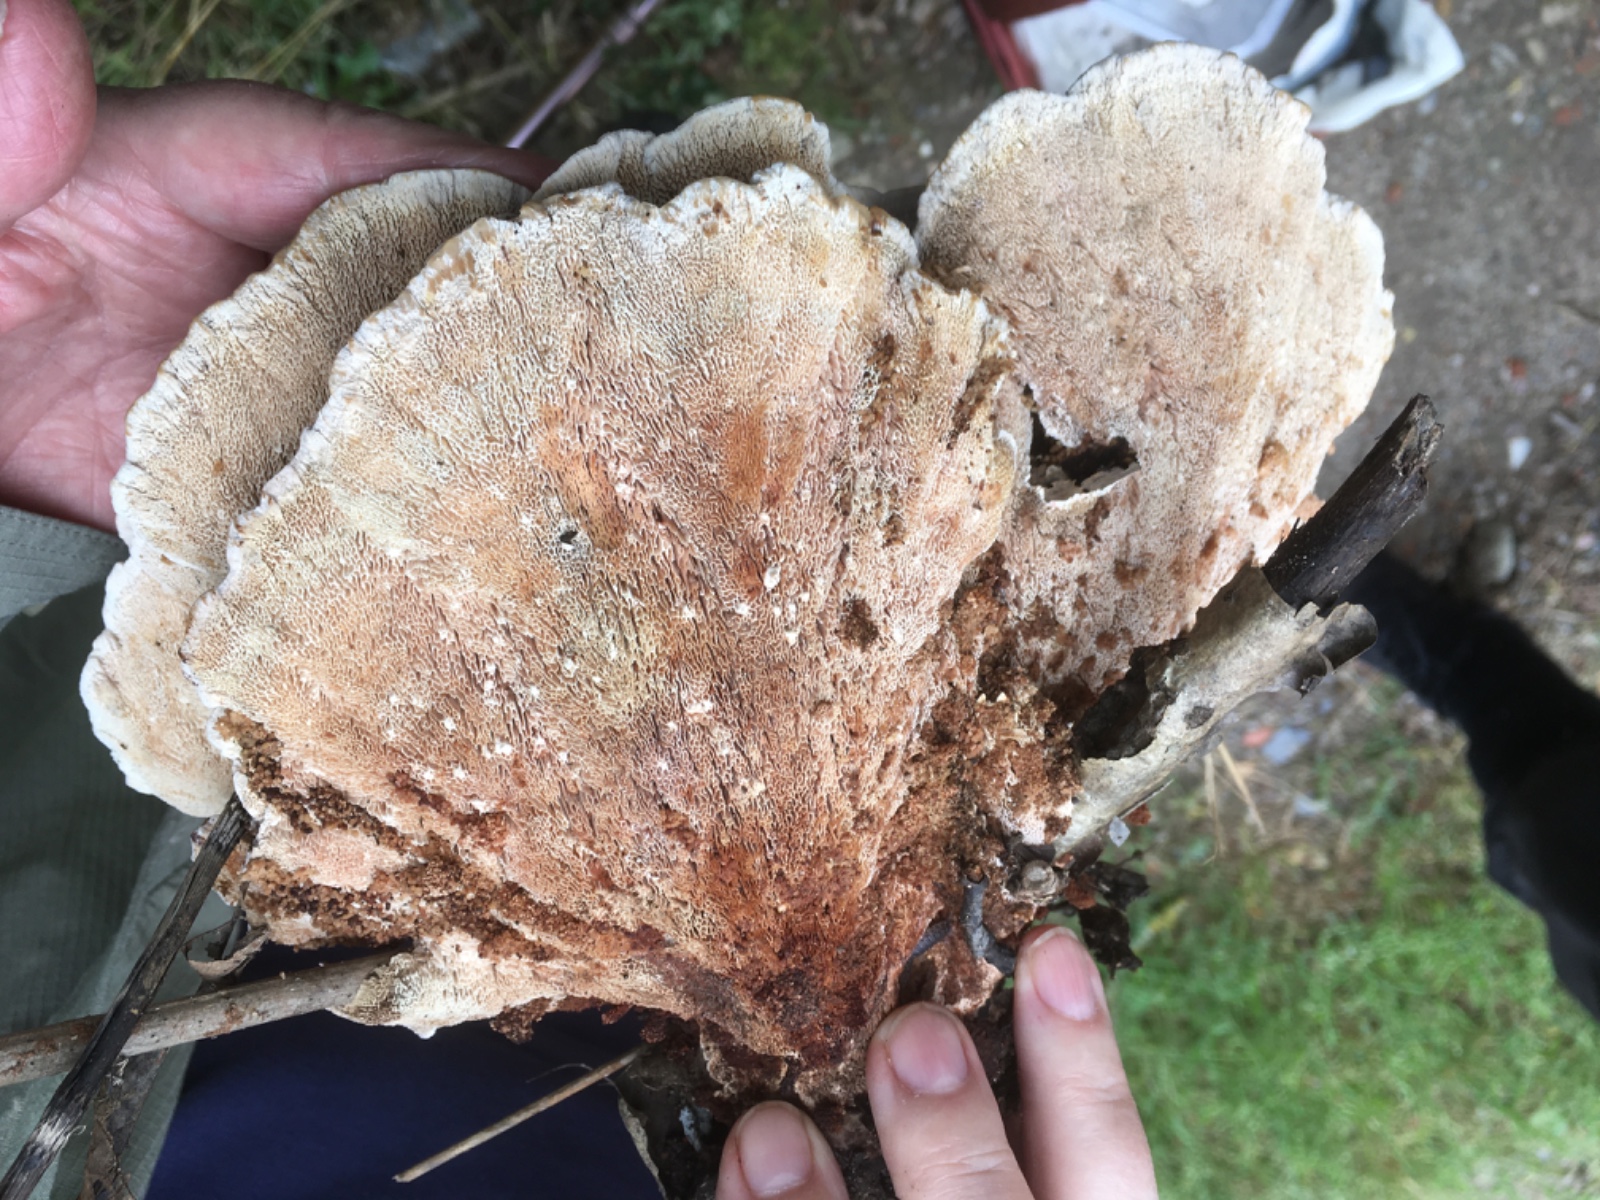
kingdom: Fungi
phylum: Basidiomycota
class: Agaricomycetes
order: Polyporales
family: Podoscyphaceae
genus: Abortiporus
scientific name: Abortiporus biennis
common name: rødmende pjalteporesvamp
